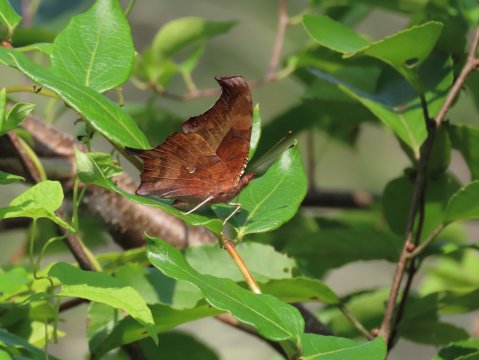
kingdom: Animalia
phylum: Arthropoda
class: Insecta
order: Lepidoptera
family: Nymphalidae
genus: Polygonia
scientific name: Polygonia interrogationis
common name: Question Mark
